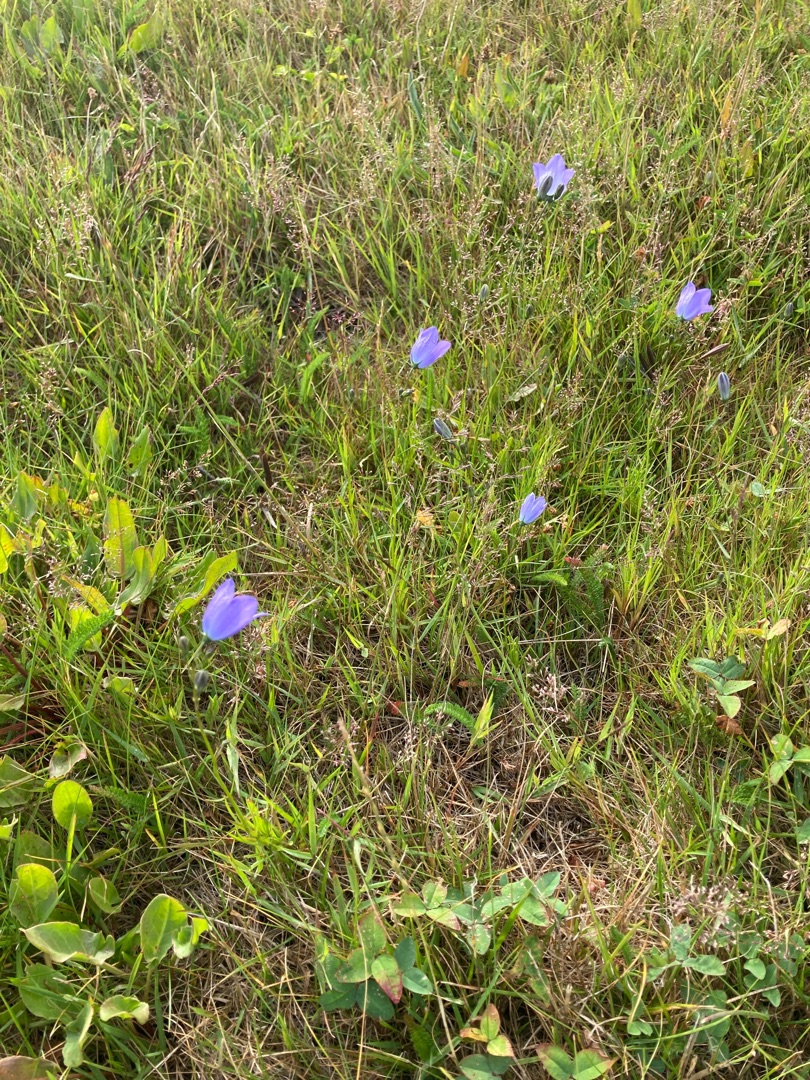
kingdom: Plantae
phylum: Tracheophyta
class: Magnoliopsida
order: Asterales
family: Campanulaceae
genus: Campanula
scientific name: Campanula rotundifolia
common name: Liden klokke
